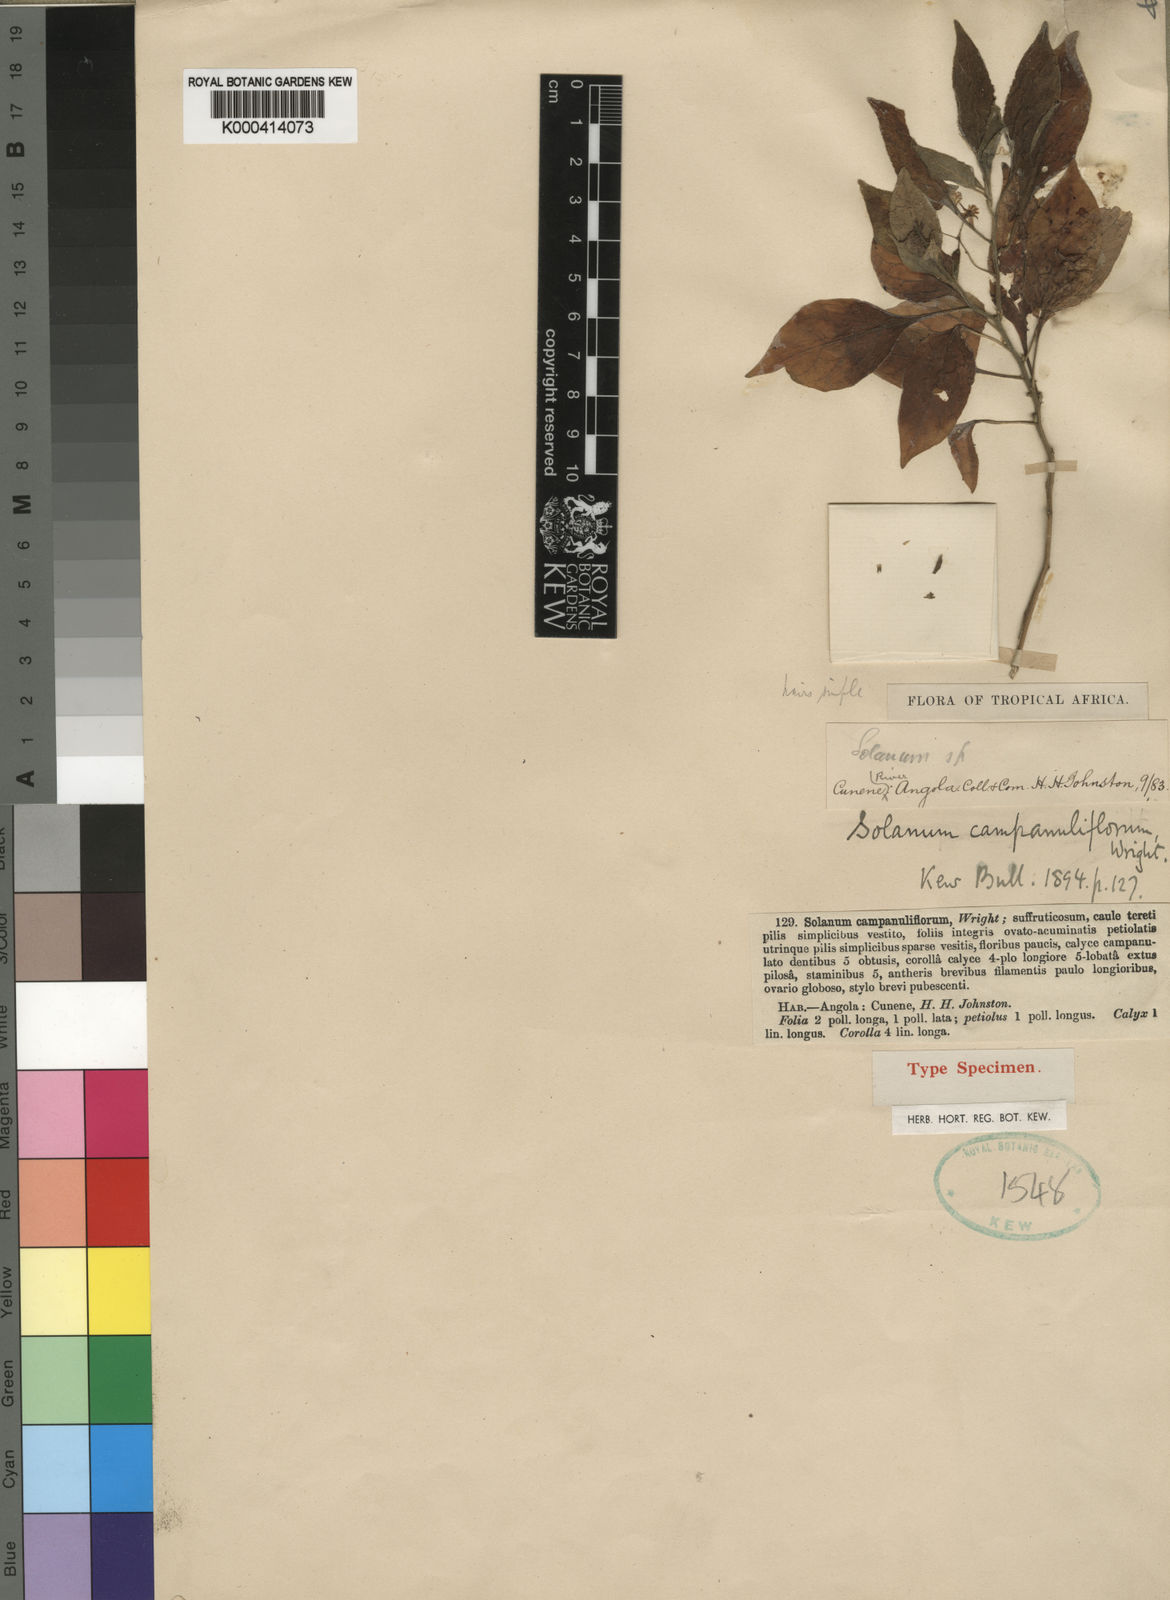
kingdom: Plantae
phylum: Tracheophyta
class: Magnoliopsida
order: Solanales
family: Solanaceae
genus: Solanum
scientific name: Solanum campanuliflorum
